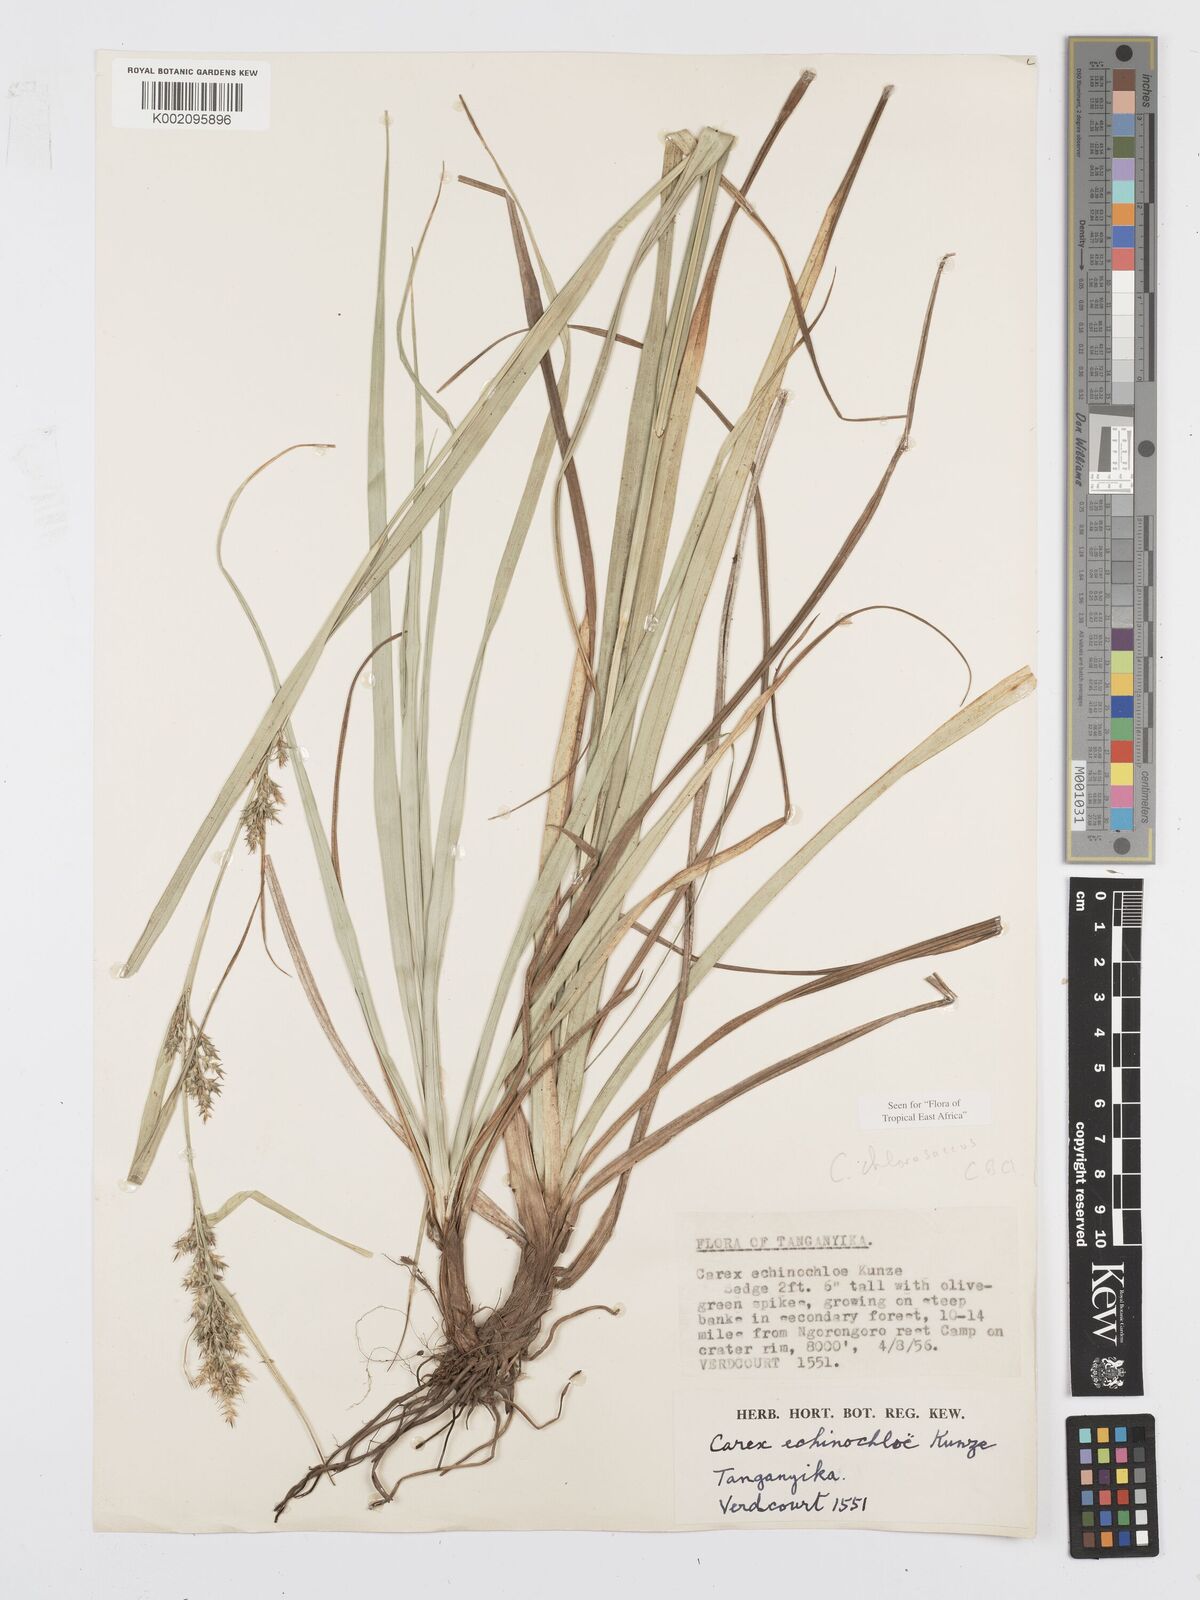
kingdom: Plantae
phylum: Tracheophyta
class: Liliopsida
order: Poales
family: Cyperaceae
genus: Carex
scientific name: Carex chlorosaccus
